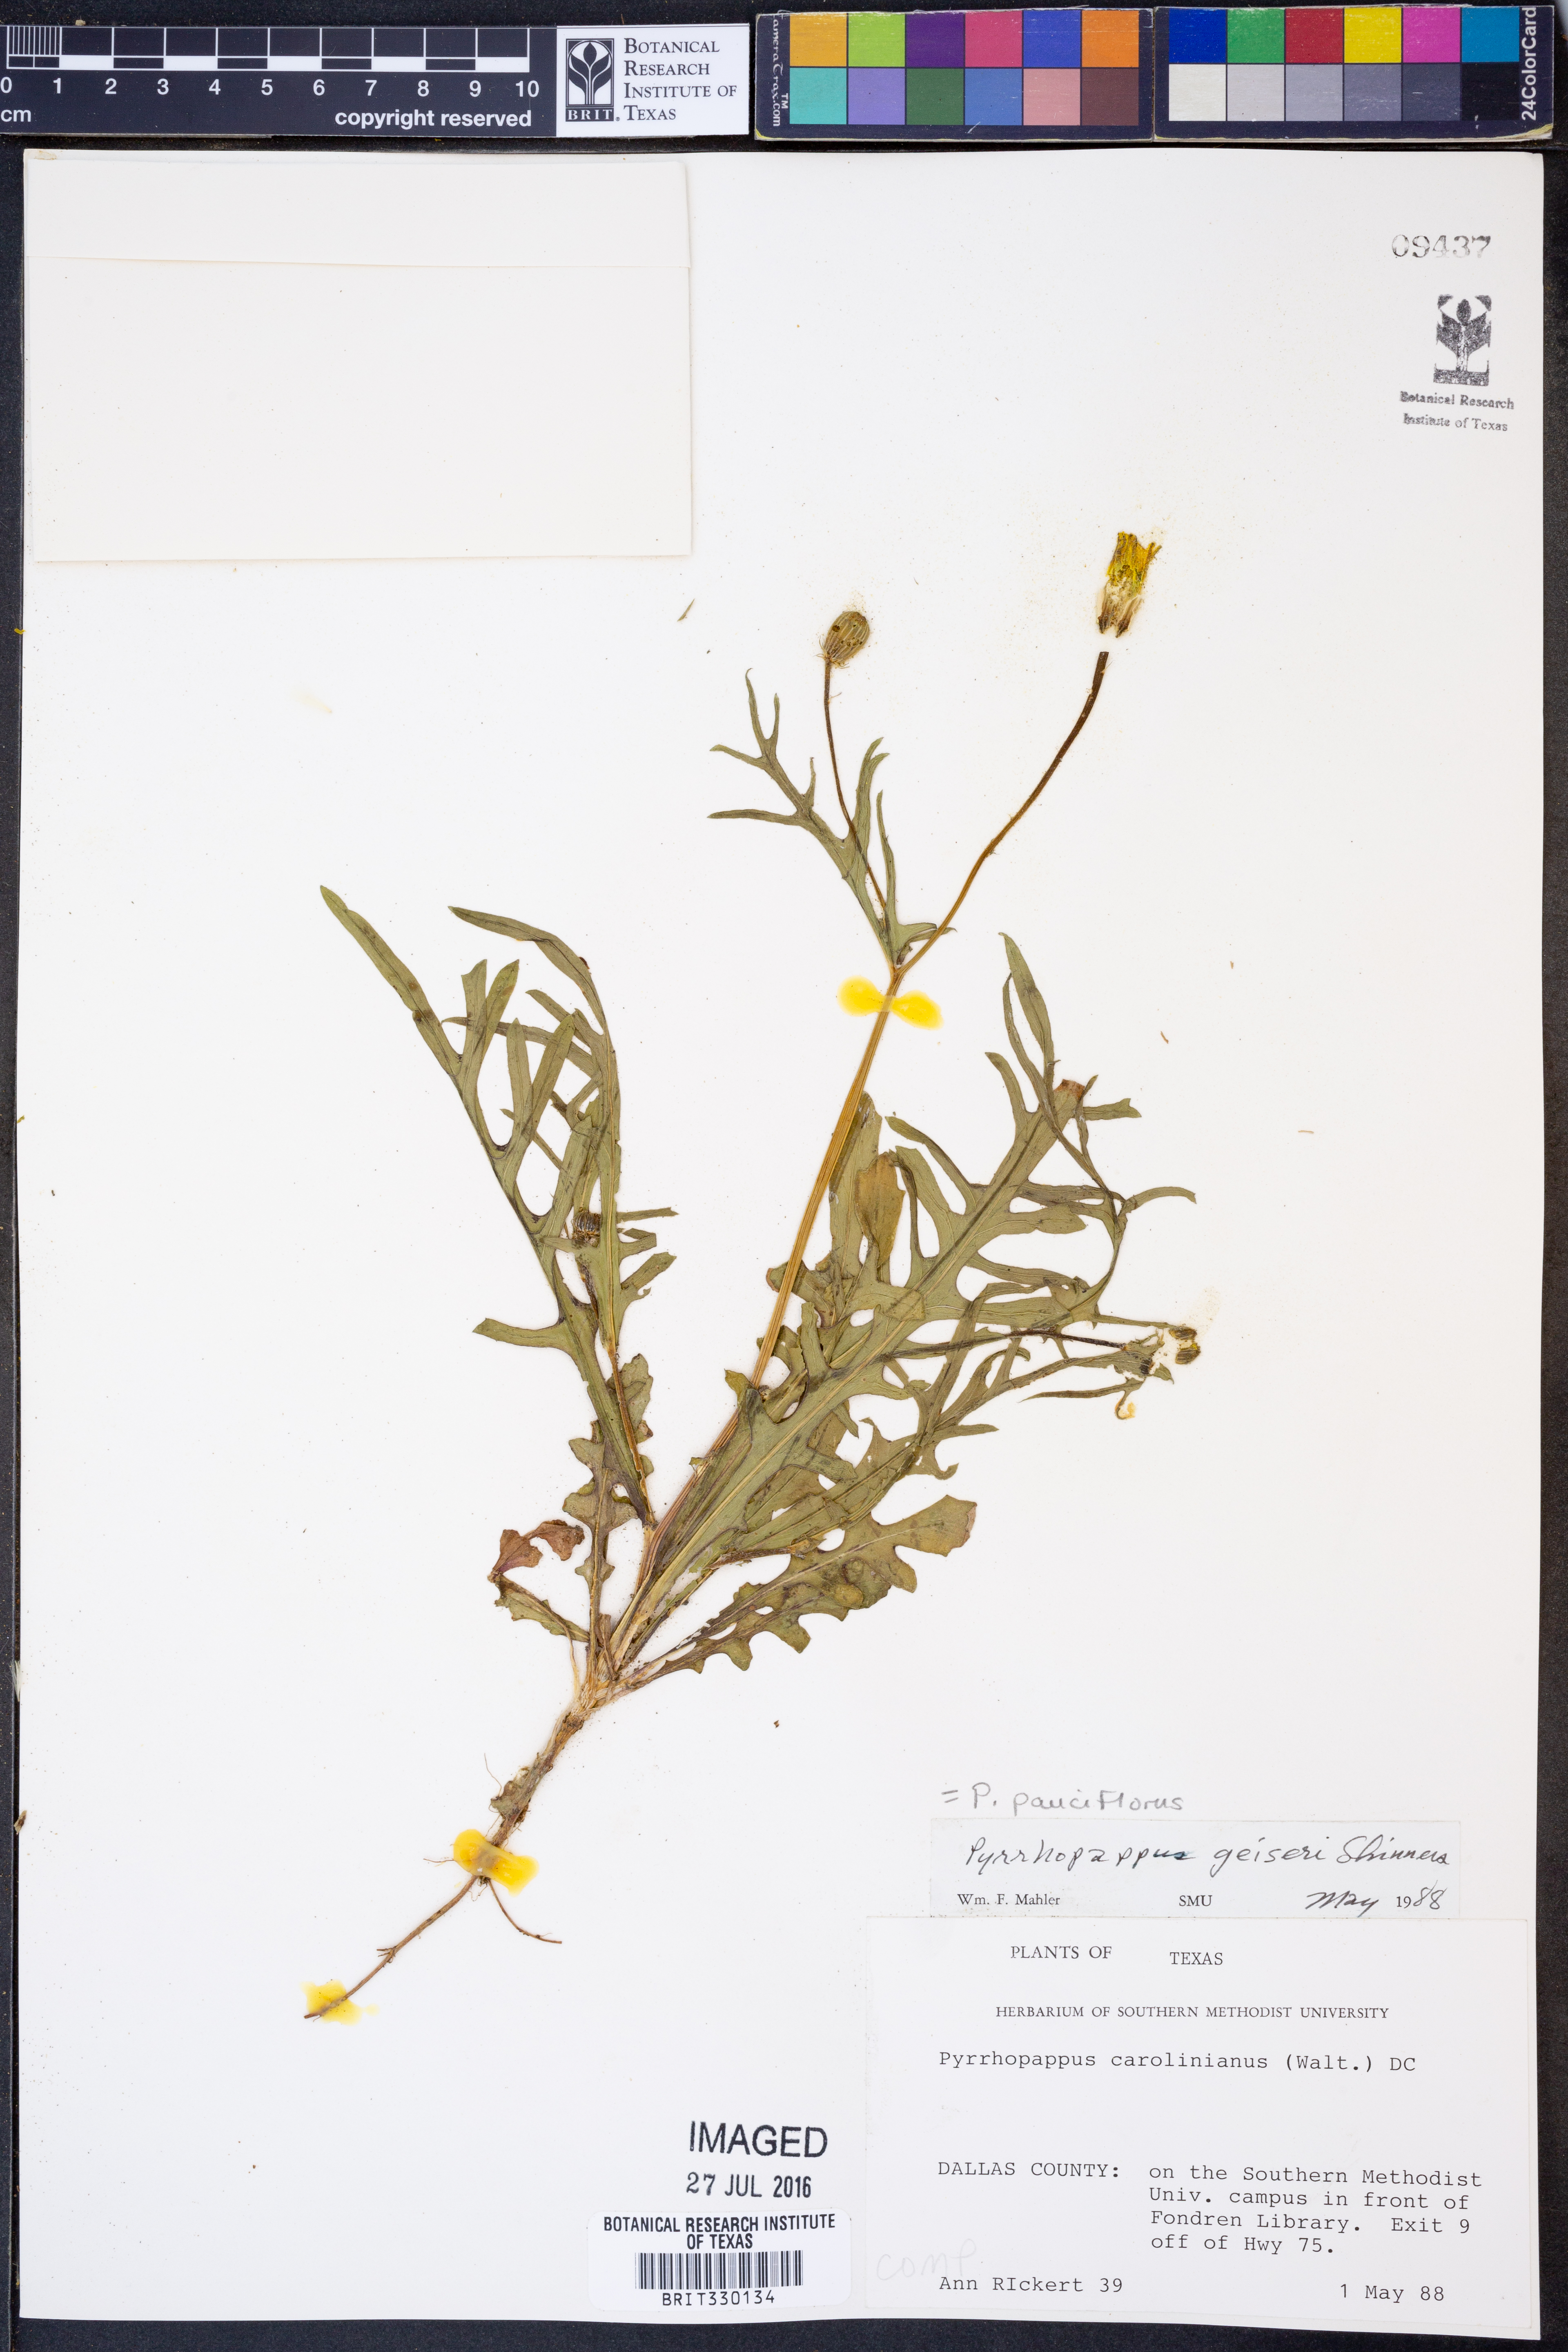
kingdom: Plantae
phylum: Tracheophyta
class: Magnoliopsida
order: Asterales
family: Asteraceae
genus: Pyrrhopappus
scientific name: Pyrrhopappus pauciflorus
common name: Texas false dandelion
